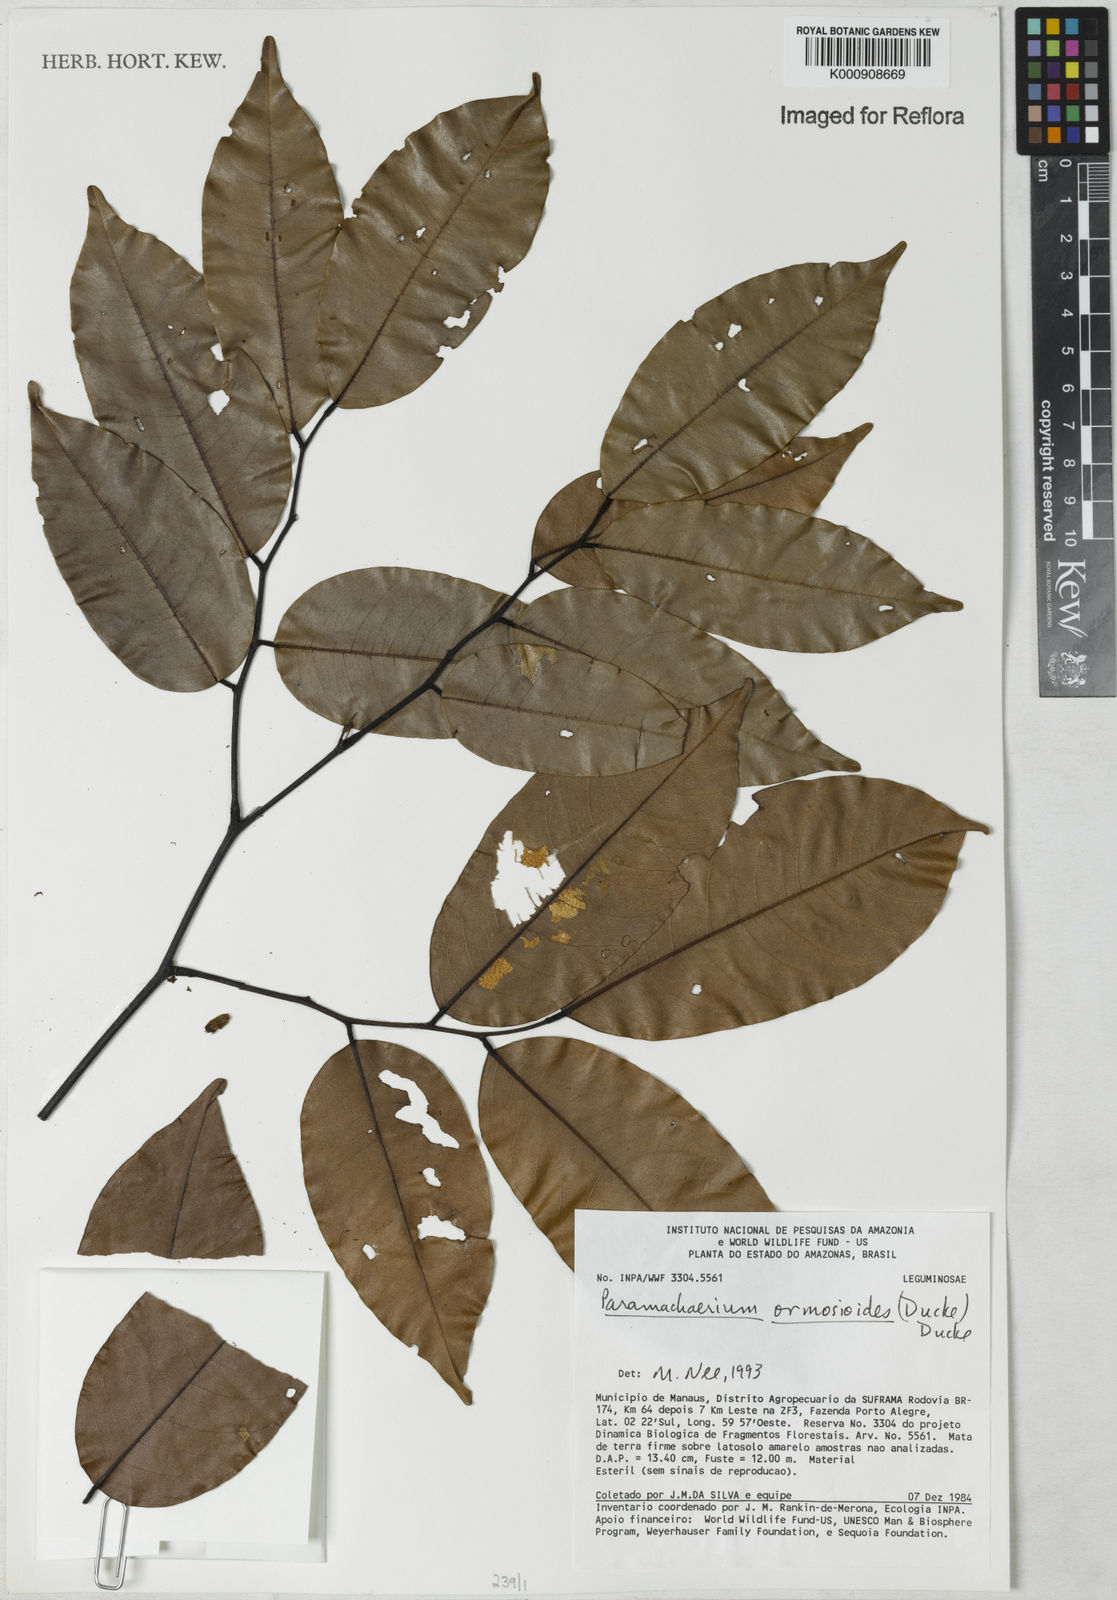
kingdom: Plantae
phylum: Tracheophyta
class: Magnoliopsida
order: Fabales
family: Fabaceae
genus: Paramachaerium
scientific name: Paramachaerium ormosioides
